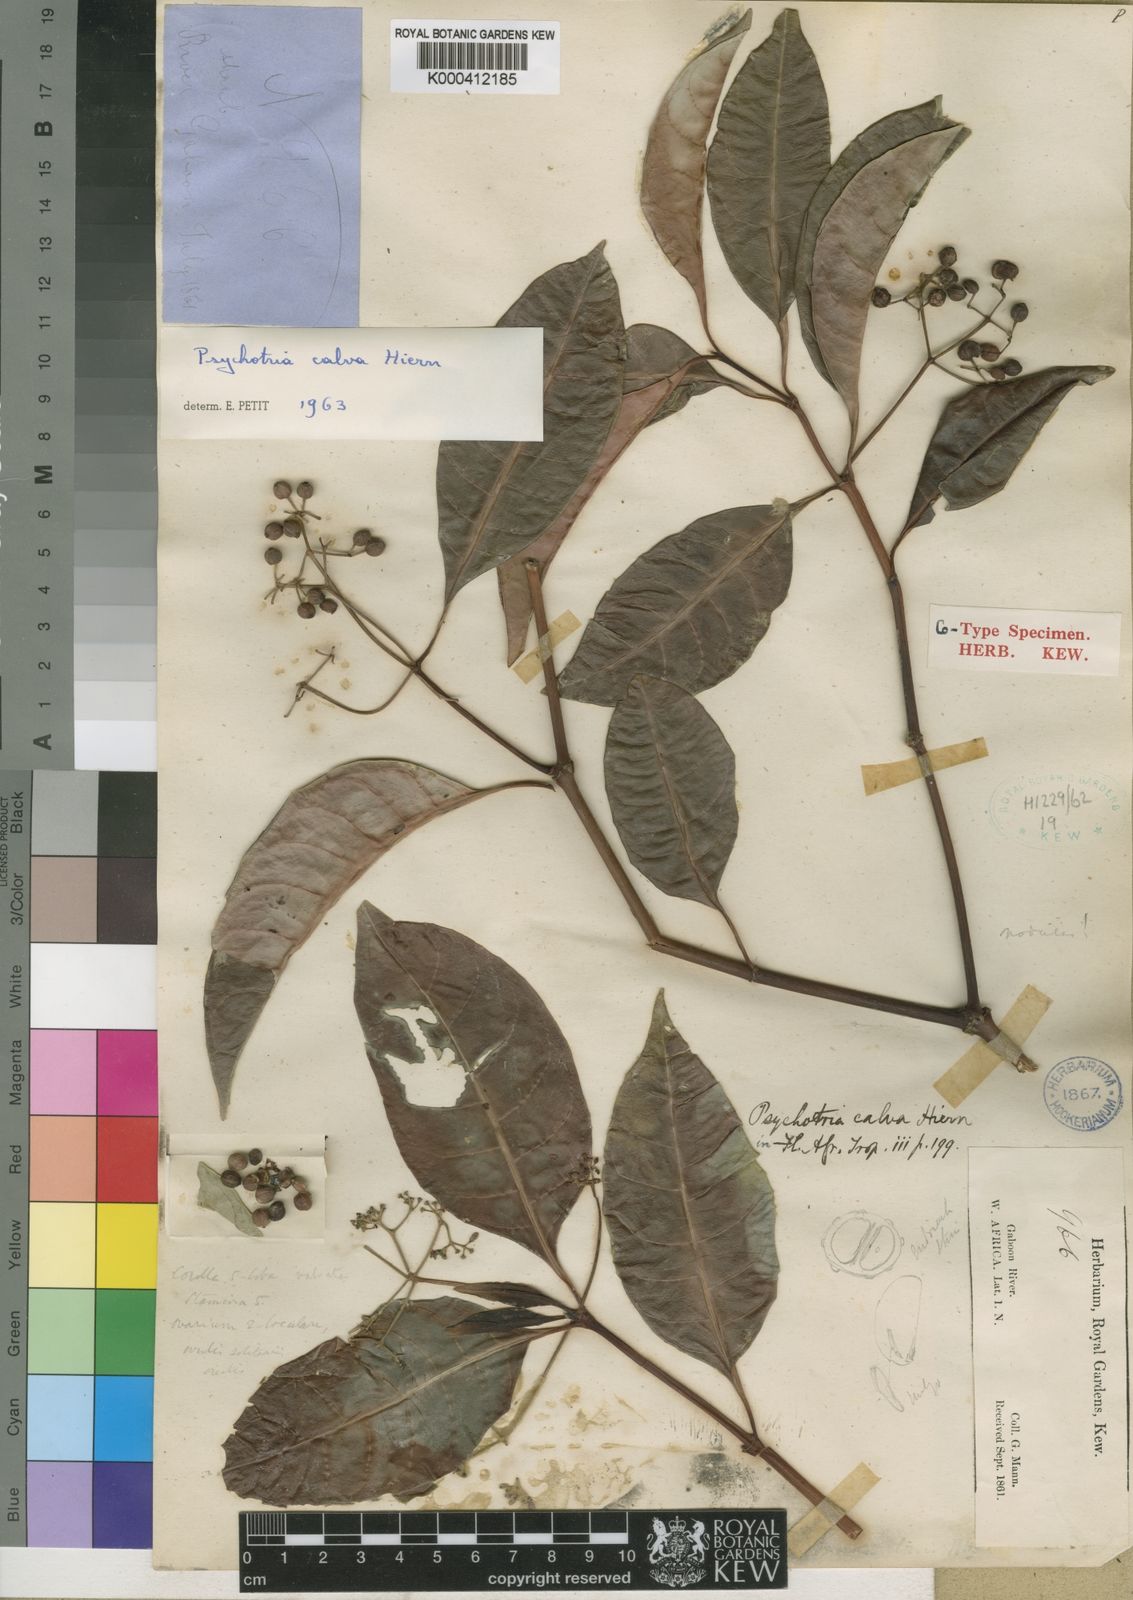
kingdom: Plantae
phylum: Tracheophyta
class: Magnoliopsida
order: Gentianales
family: Rubiaceae
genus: Psychotria
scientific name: Psychotria calva
